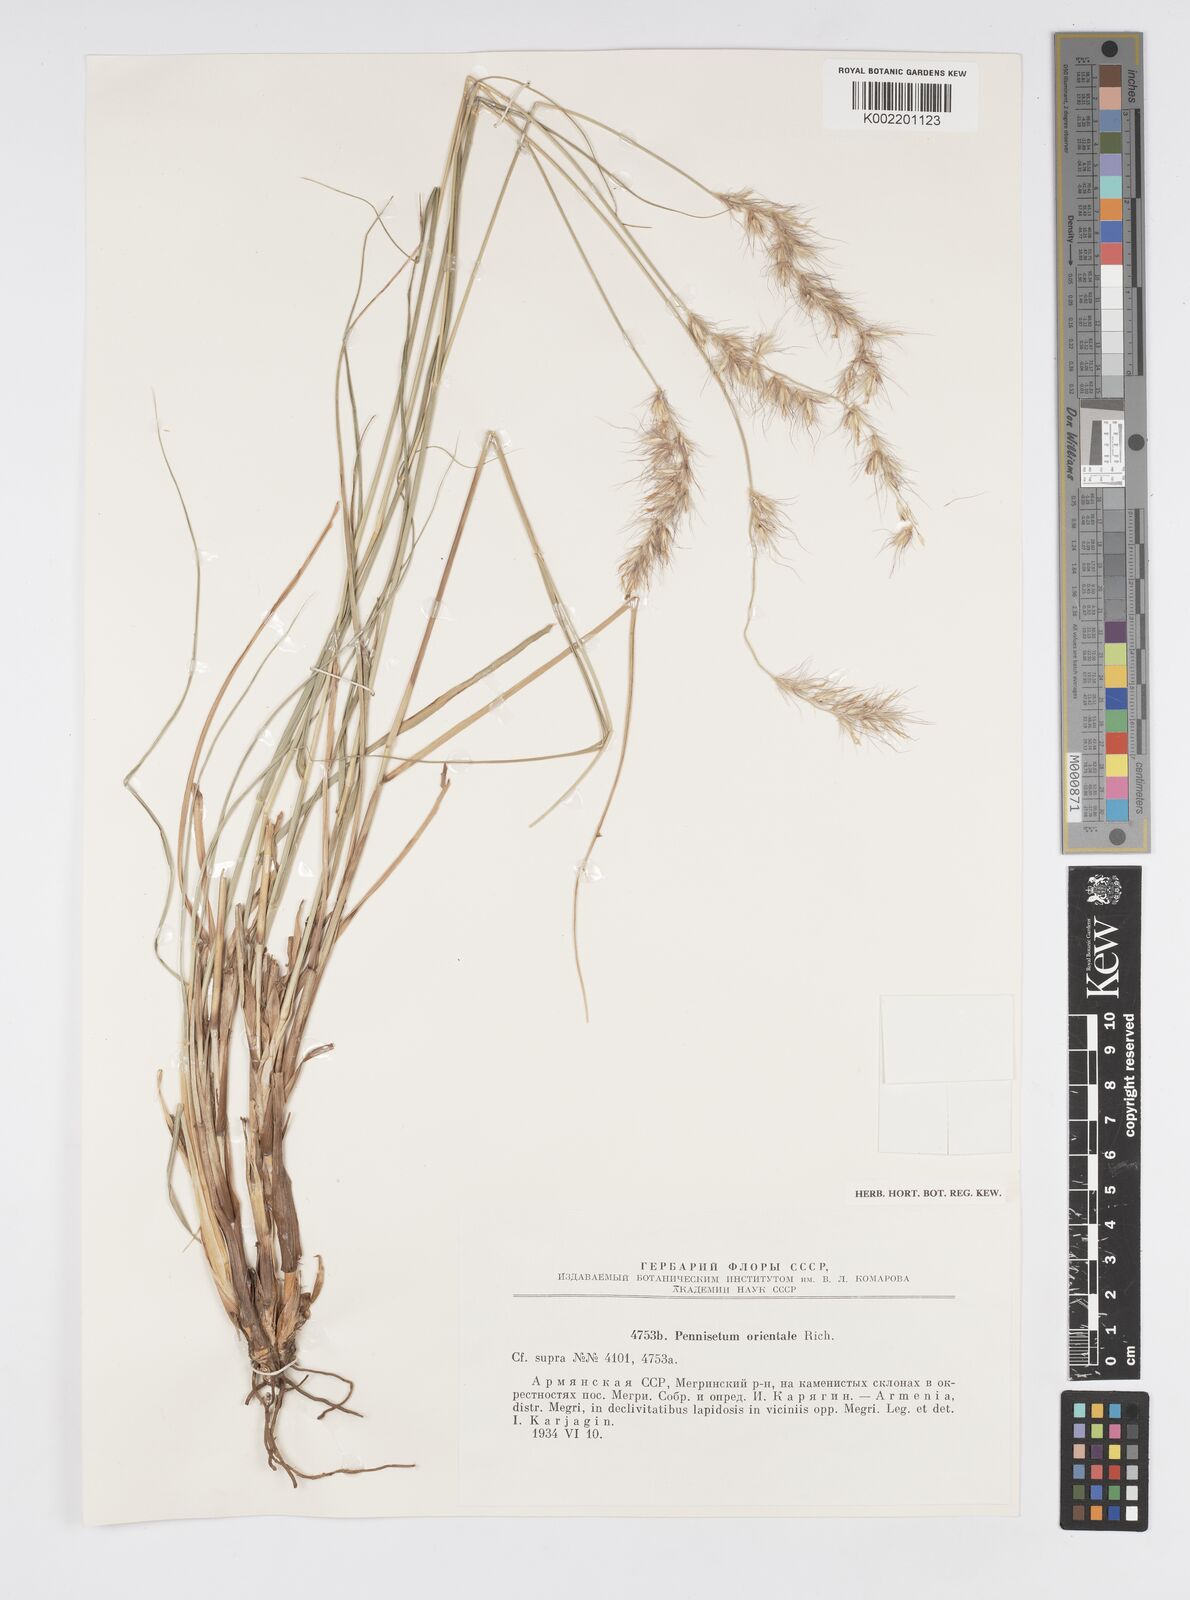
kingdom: Plantae
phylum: Tracheophyta
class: Liliopsida
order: Poales
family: Poaceae
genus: Cenchrus
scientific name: Cenchrus orientalis
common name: Oriental fountain grass
